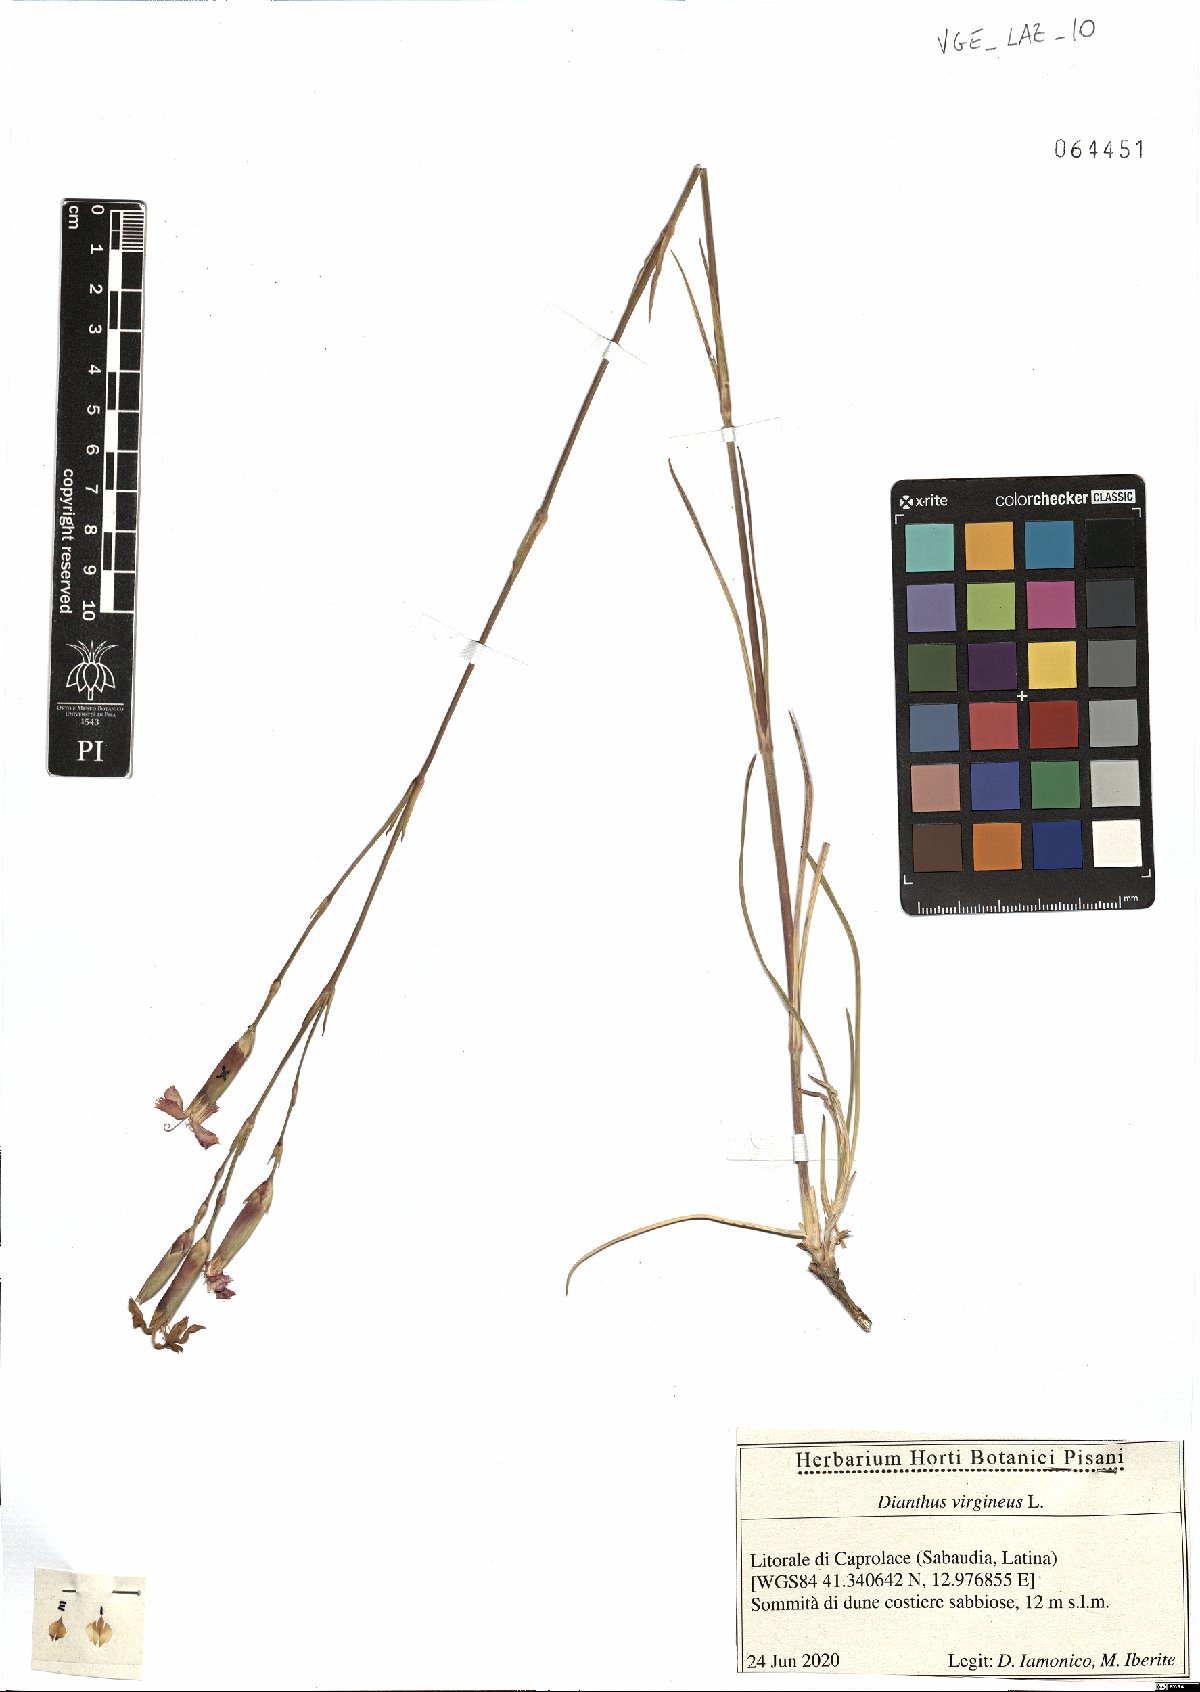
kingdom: Plantae
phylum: Tracheophyta
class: Magnoliopsida
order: Caryophyllales
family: Caryophyllaceae
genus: Dianthus
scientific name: Dianthus virgineus
